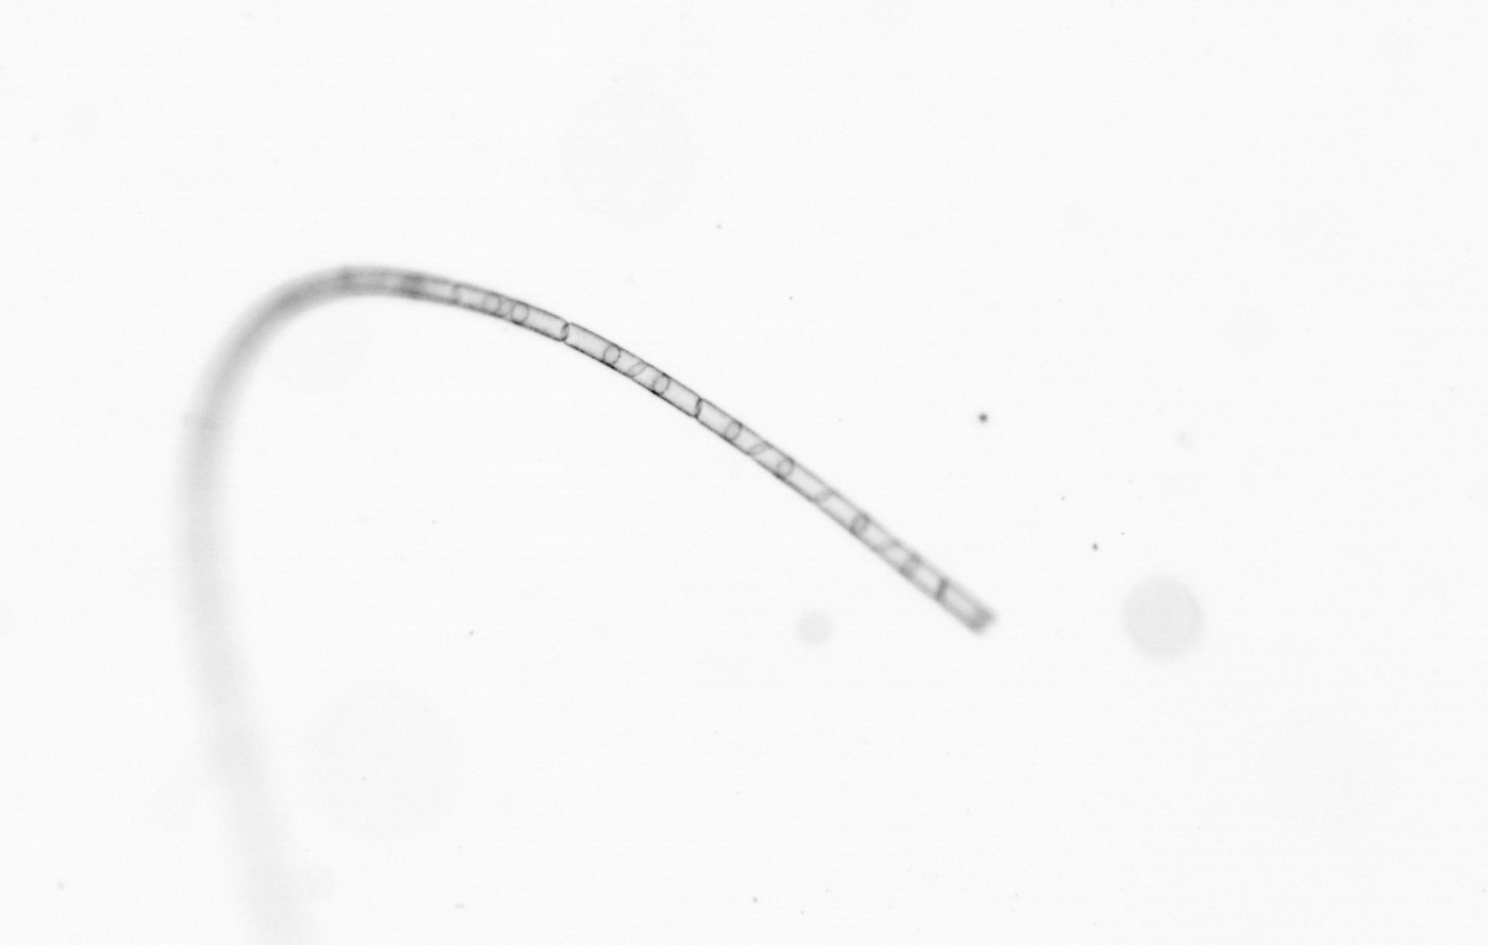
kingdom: Chromista
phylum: Ochrophyta
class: Bacillariophyceae
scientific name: Bacillariophyceae
